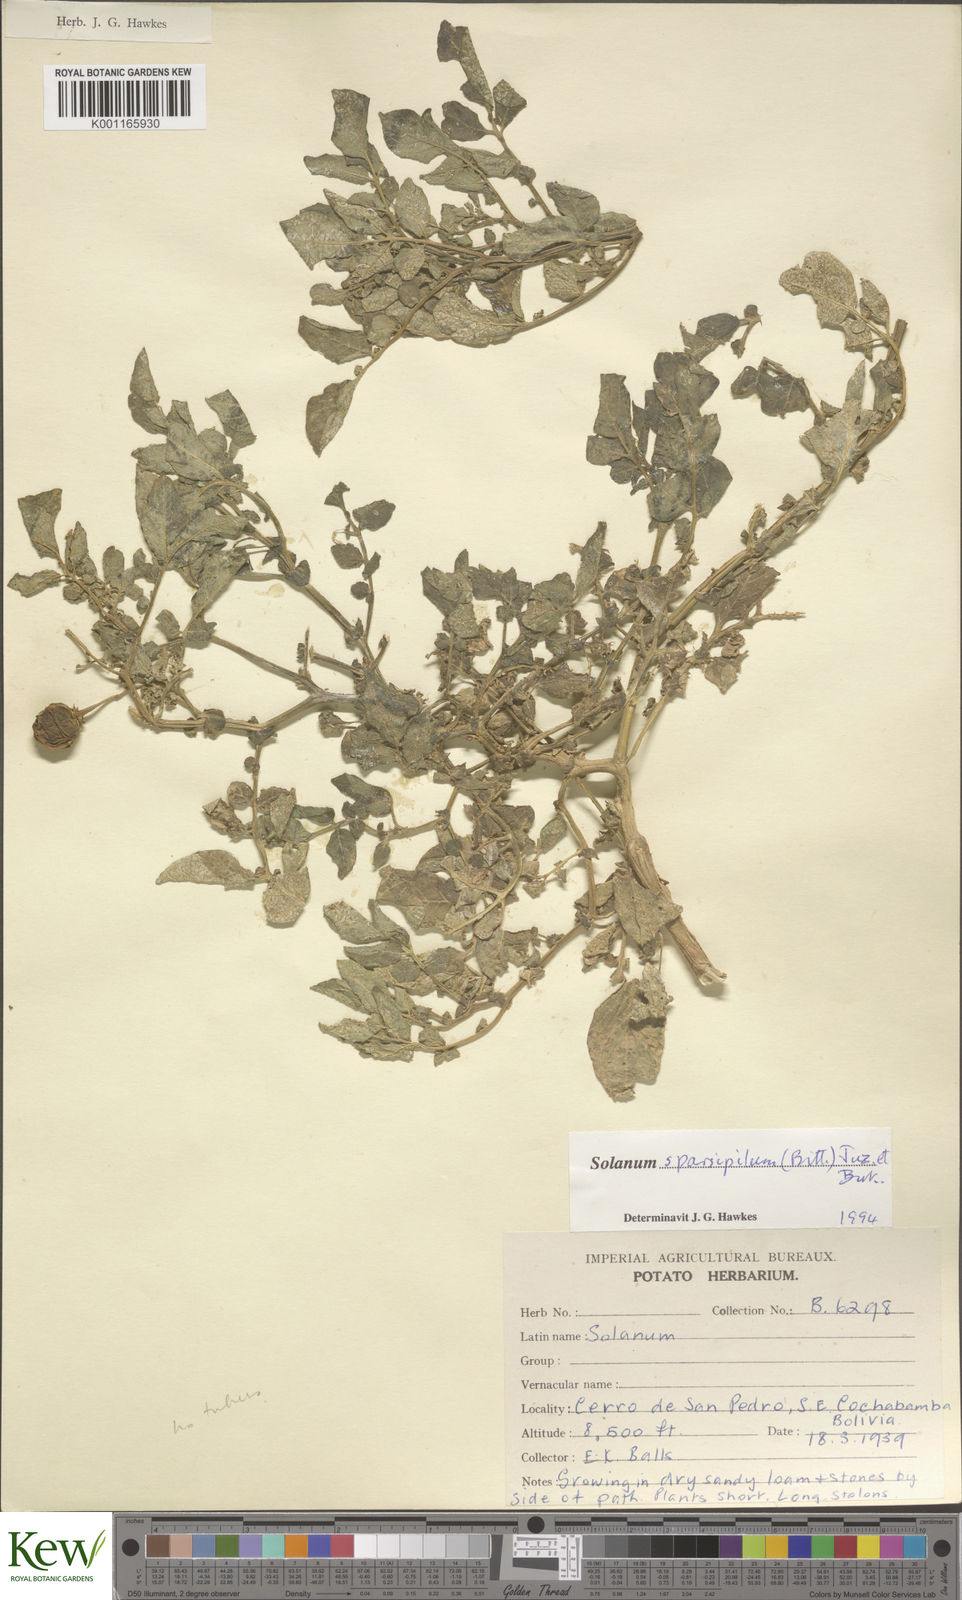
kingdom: Plantae
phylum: Tracheophyta
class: Magnoliopsida
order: Solanales
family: Solanaceae
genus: Solanum
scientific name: Solanum brevicaule
